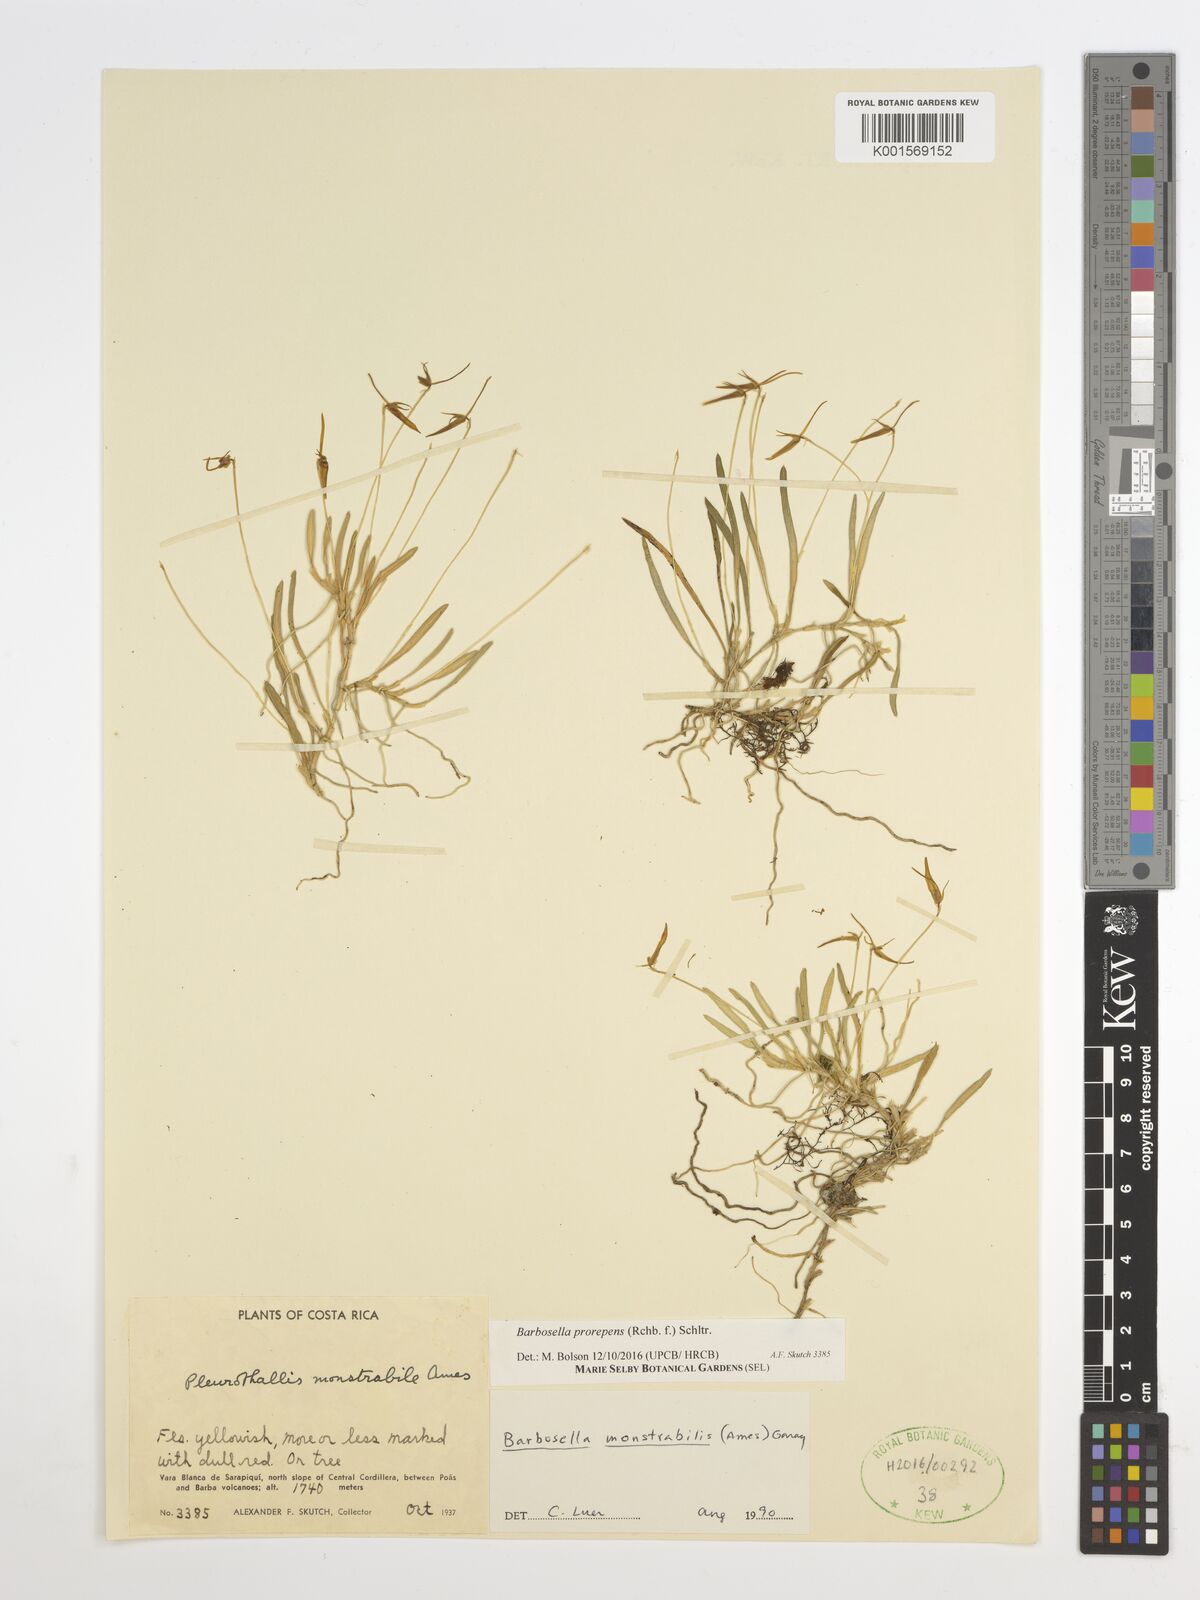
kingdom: Plantae
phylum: Tracheophyta
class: Liliopsida
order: Asparagales
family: Orchidaceae
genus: Barbosella
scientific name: Barbosella prorepens
